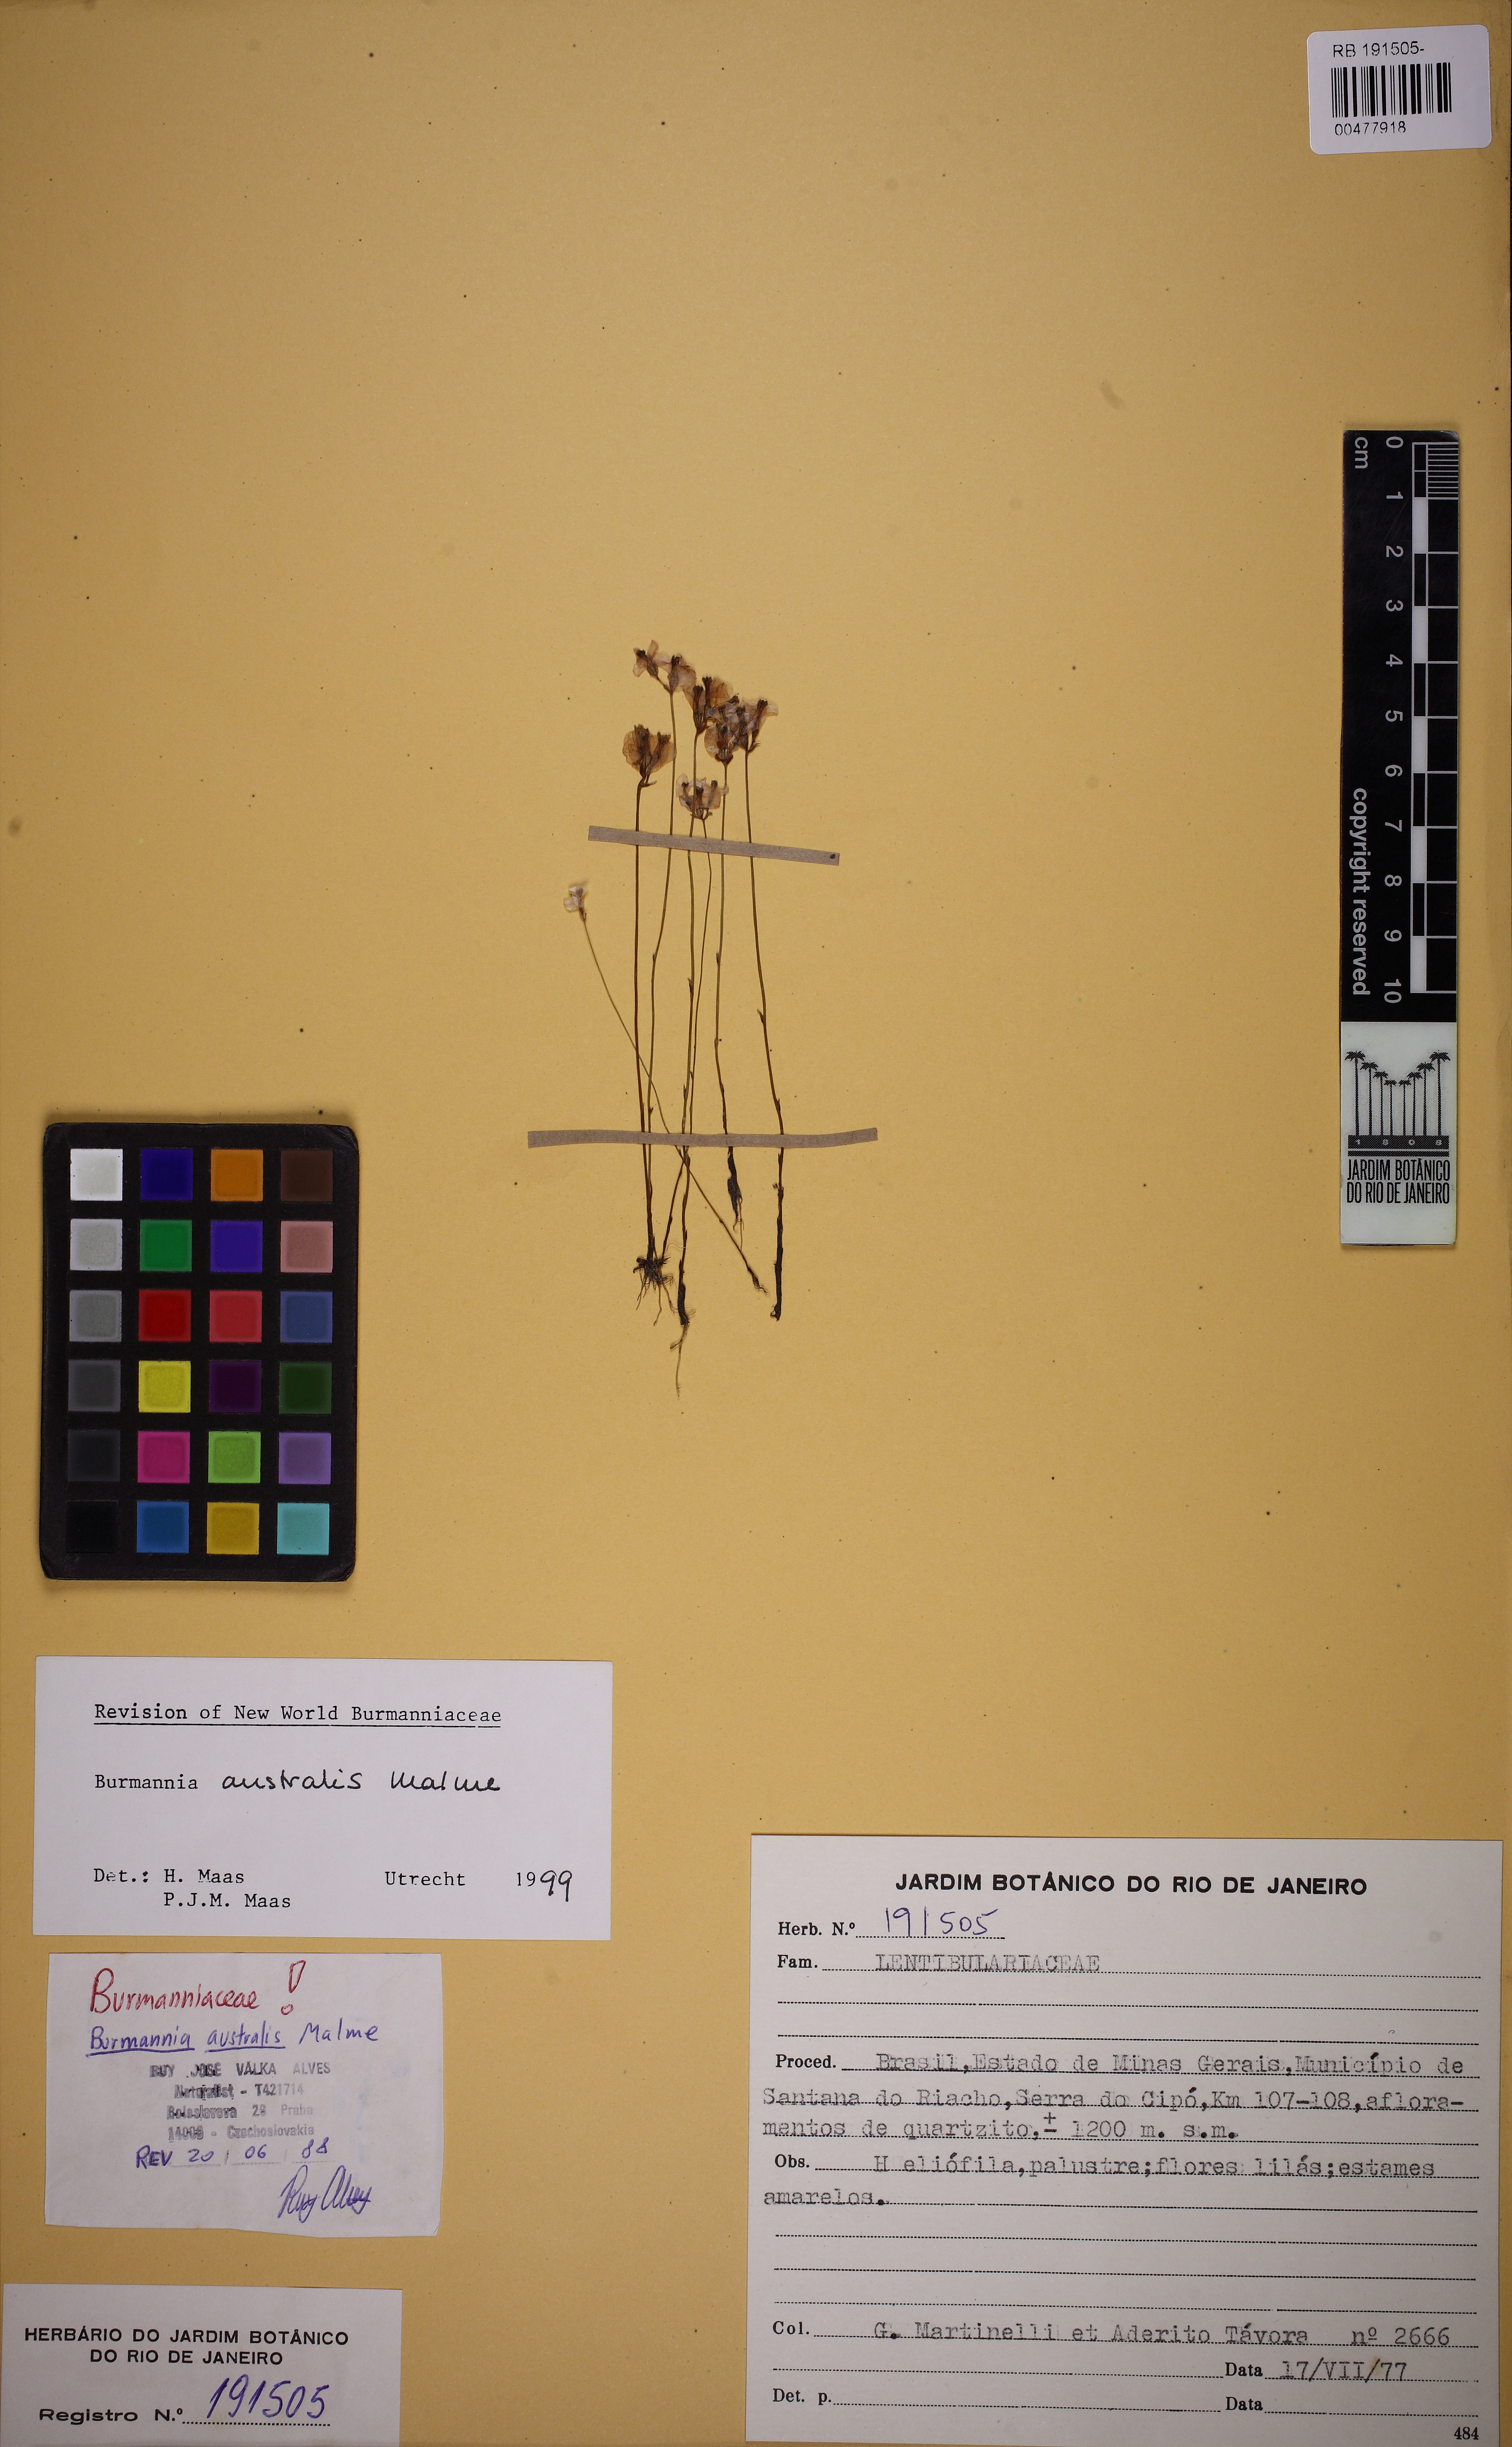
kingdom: Plantae
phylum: Tracheophyta
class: Liliopsida
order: Dioscoreales
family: Burmanniaceae
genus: Burmannia
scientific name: Burmannia australis
